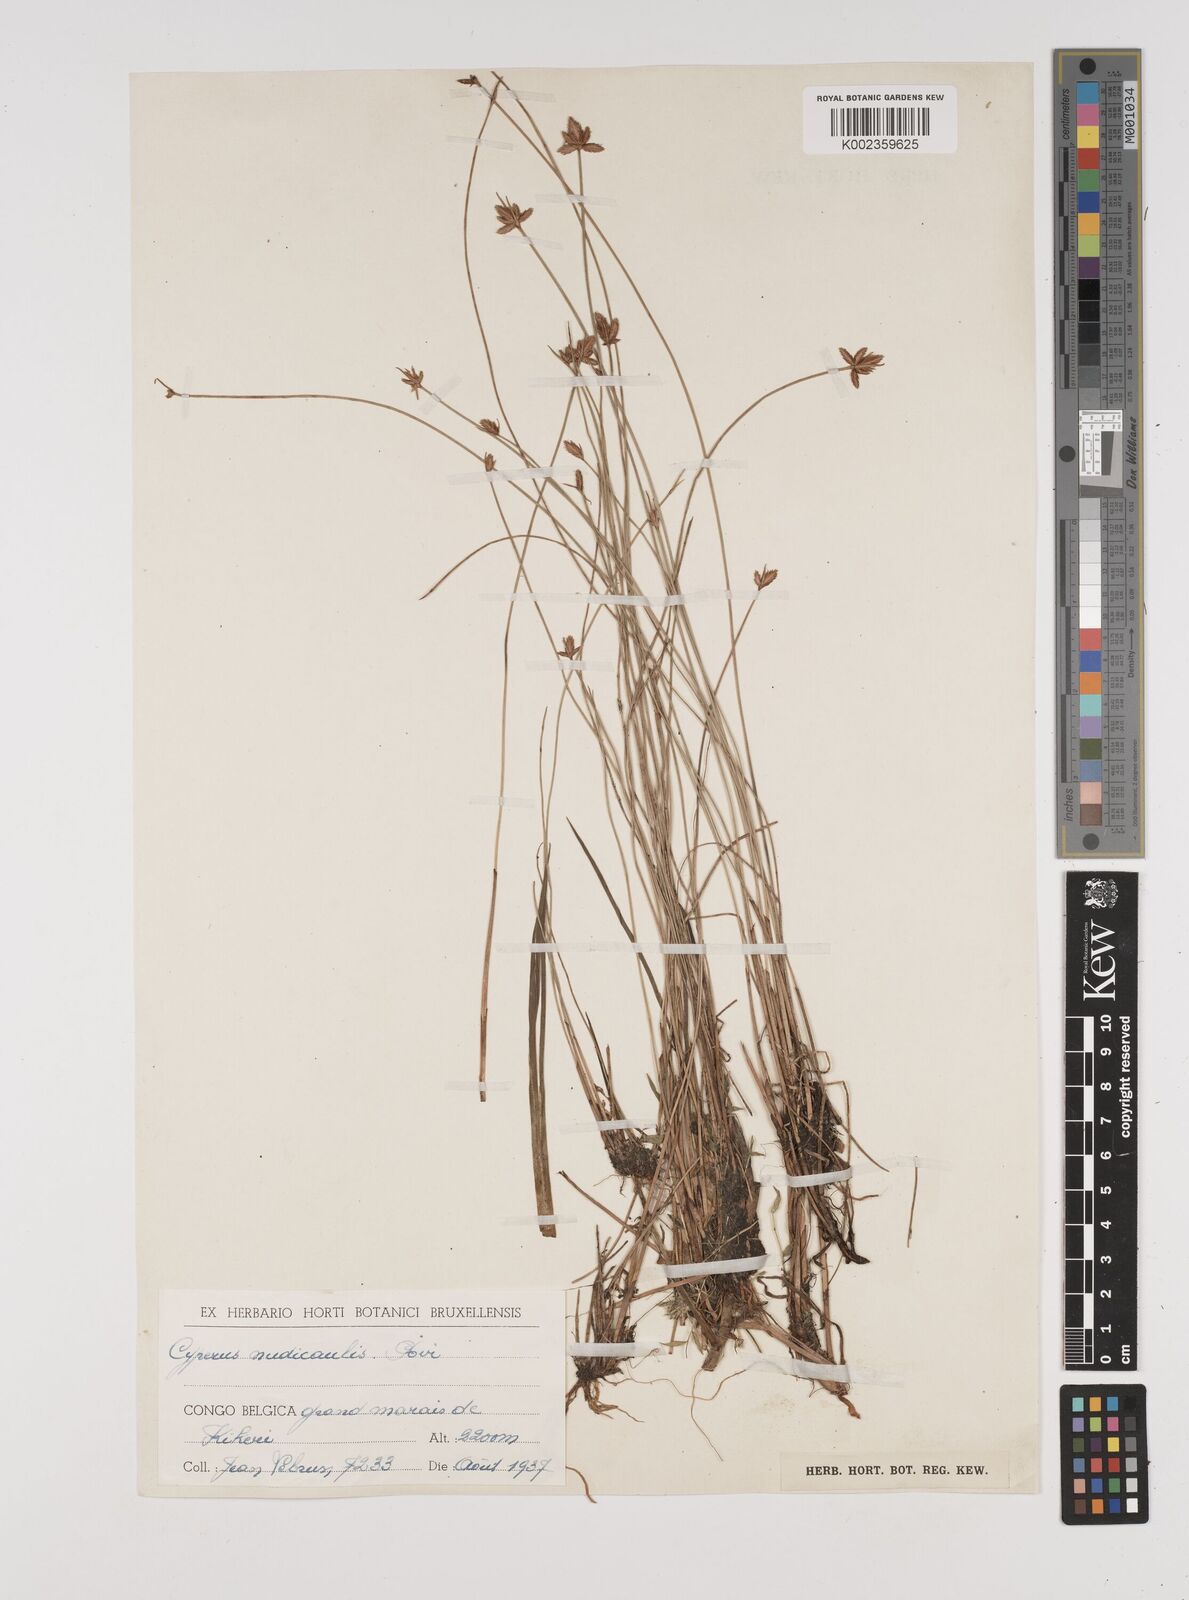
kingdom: Plantae
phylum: Tracheophyta
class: Liliopsida
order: Poales
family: Cyperaceae
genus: Cyperus
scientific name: Cyperus pectinatus
